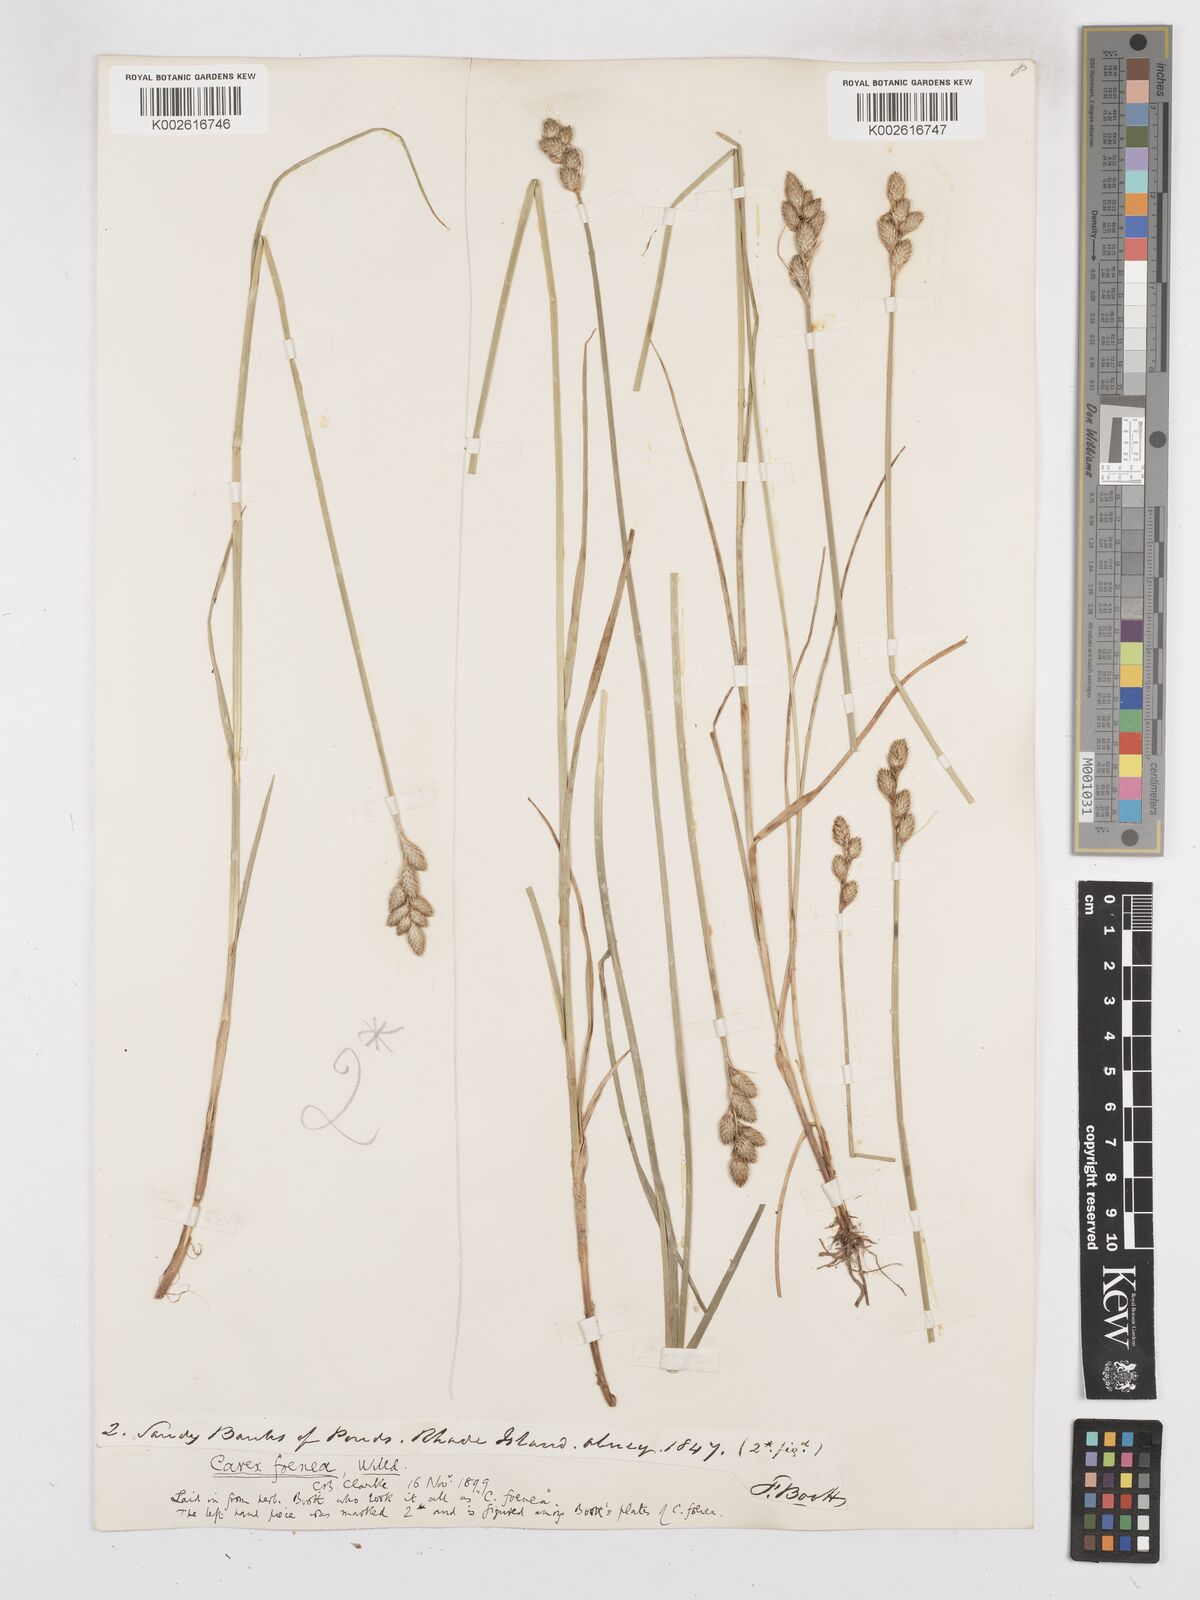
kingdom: Plantae
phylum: Tracheophyta
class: Liliopsida
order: Poales
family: Cyperaceae
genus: Carex
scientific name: Carex argyrantha
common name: Silvery-flowered sedge
